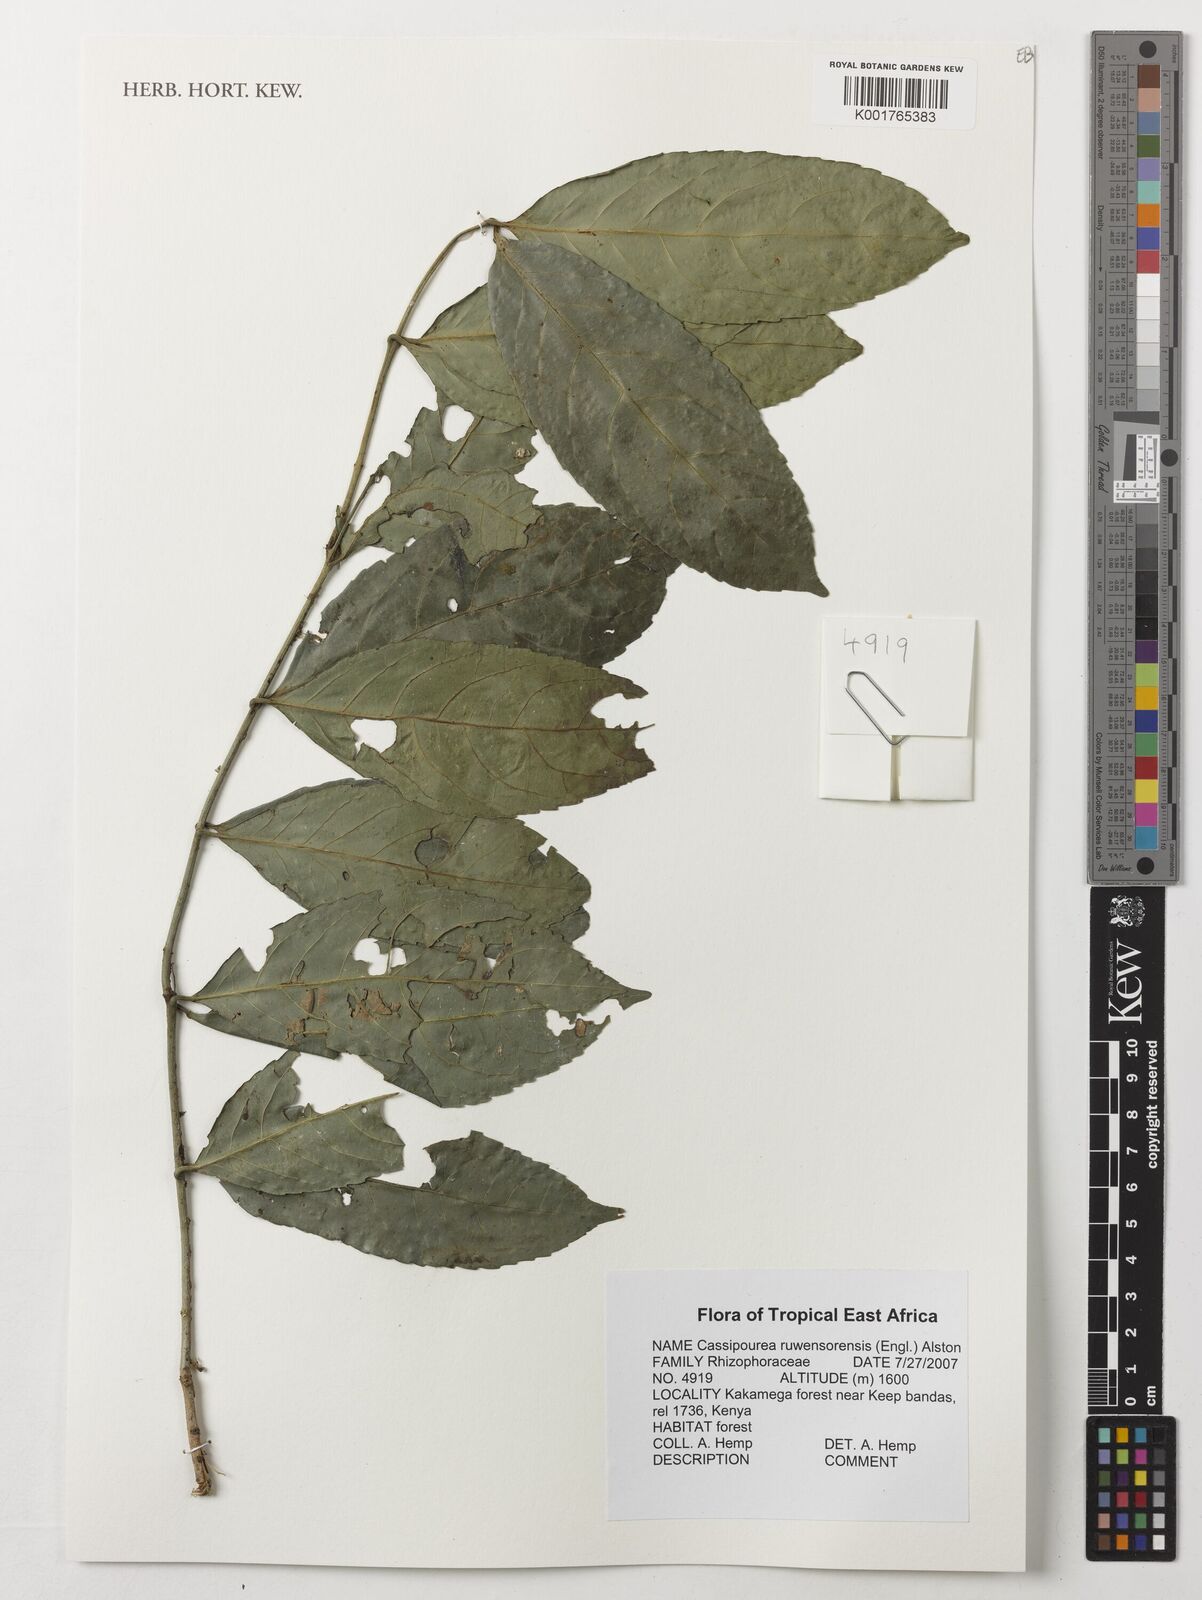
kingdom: Plantae
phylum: Tracheophyta
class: Magnoliopsida
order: Malpighiales
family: Rhizophoraceae
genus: Cassipourea
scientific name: Cassipourea ruwensorensis
